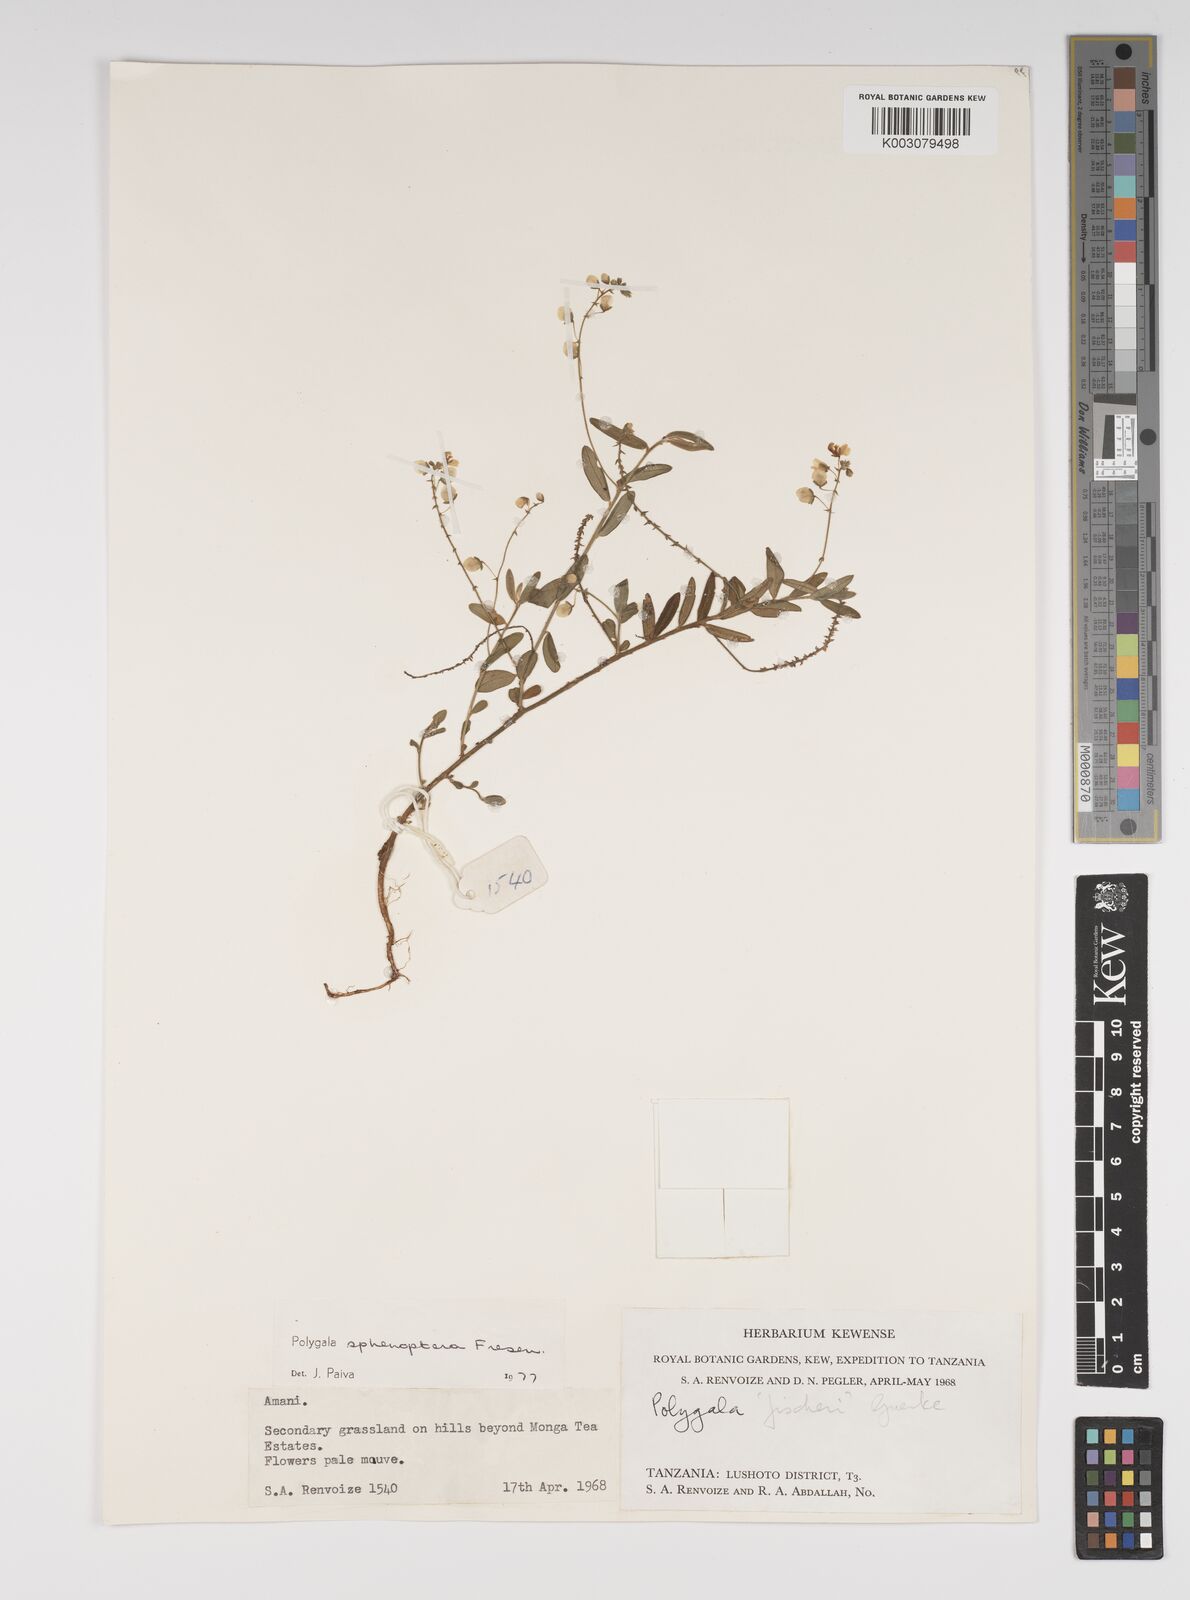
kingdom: Plantae
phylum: Tracheophyta
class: Magnoliopsida
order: Fabales
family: Polygalaceae
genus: Polygala
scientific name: Polygala sphenoptera
